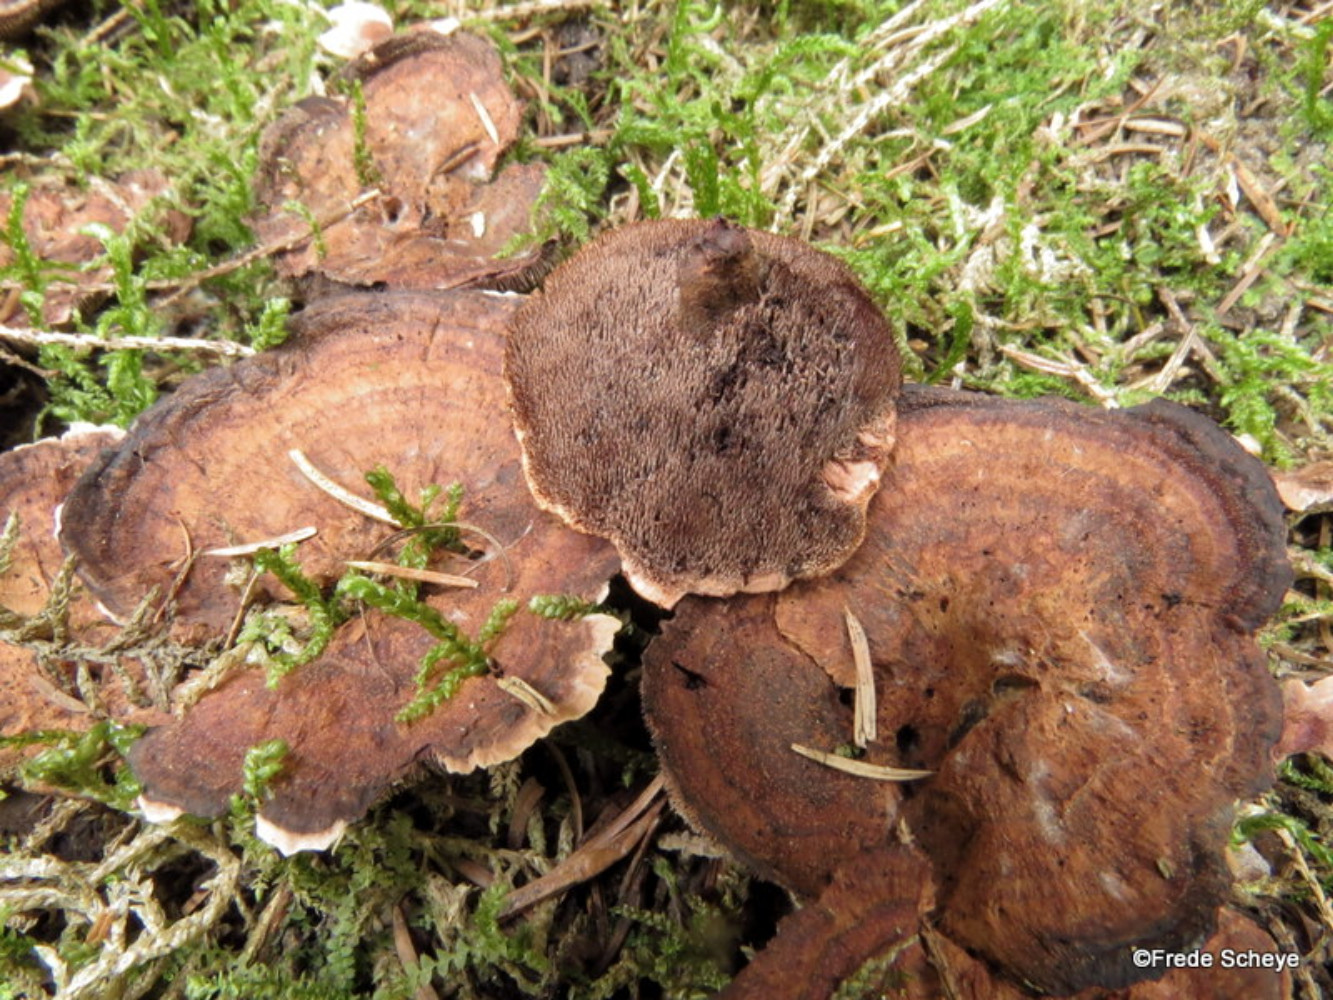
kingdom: Fungi
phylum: Basidiomycota
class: Agaricomycetes
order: Thelephorales
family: Bankeraceae
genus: Hydnellum
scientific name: Hydnellum concrescens
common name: bæltet korkpigsvamp
